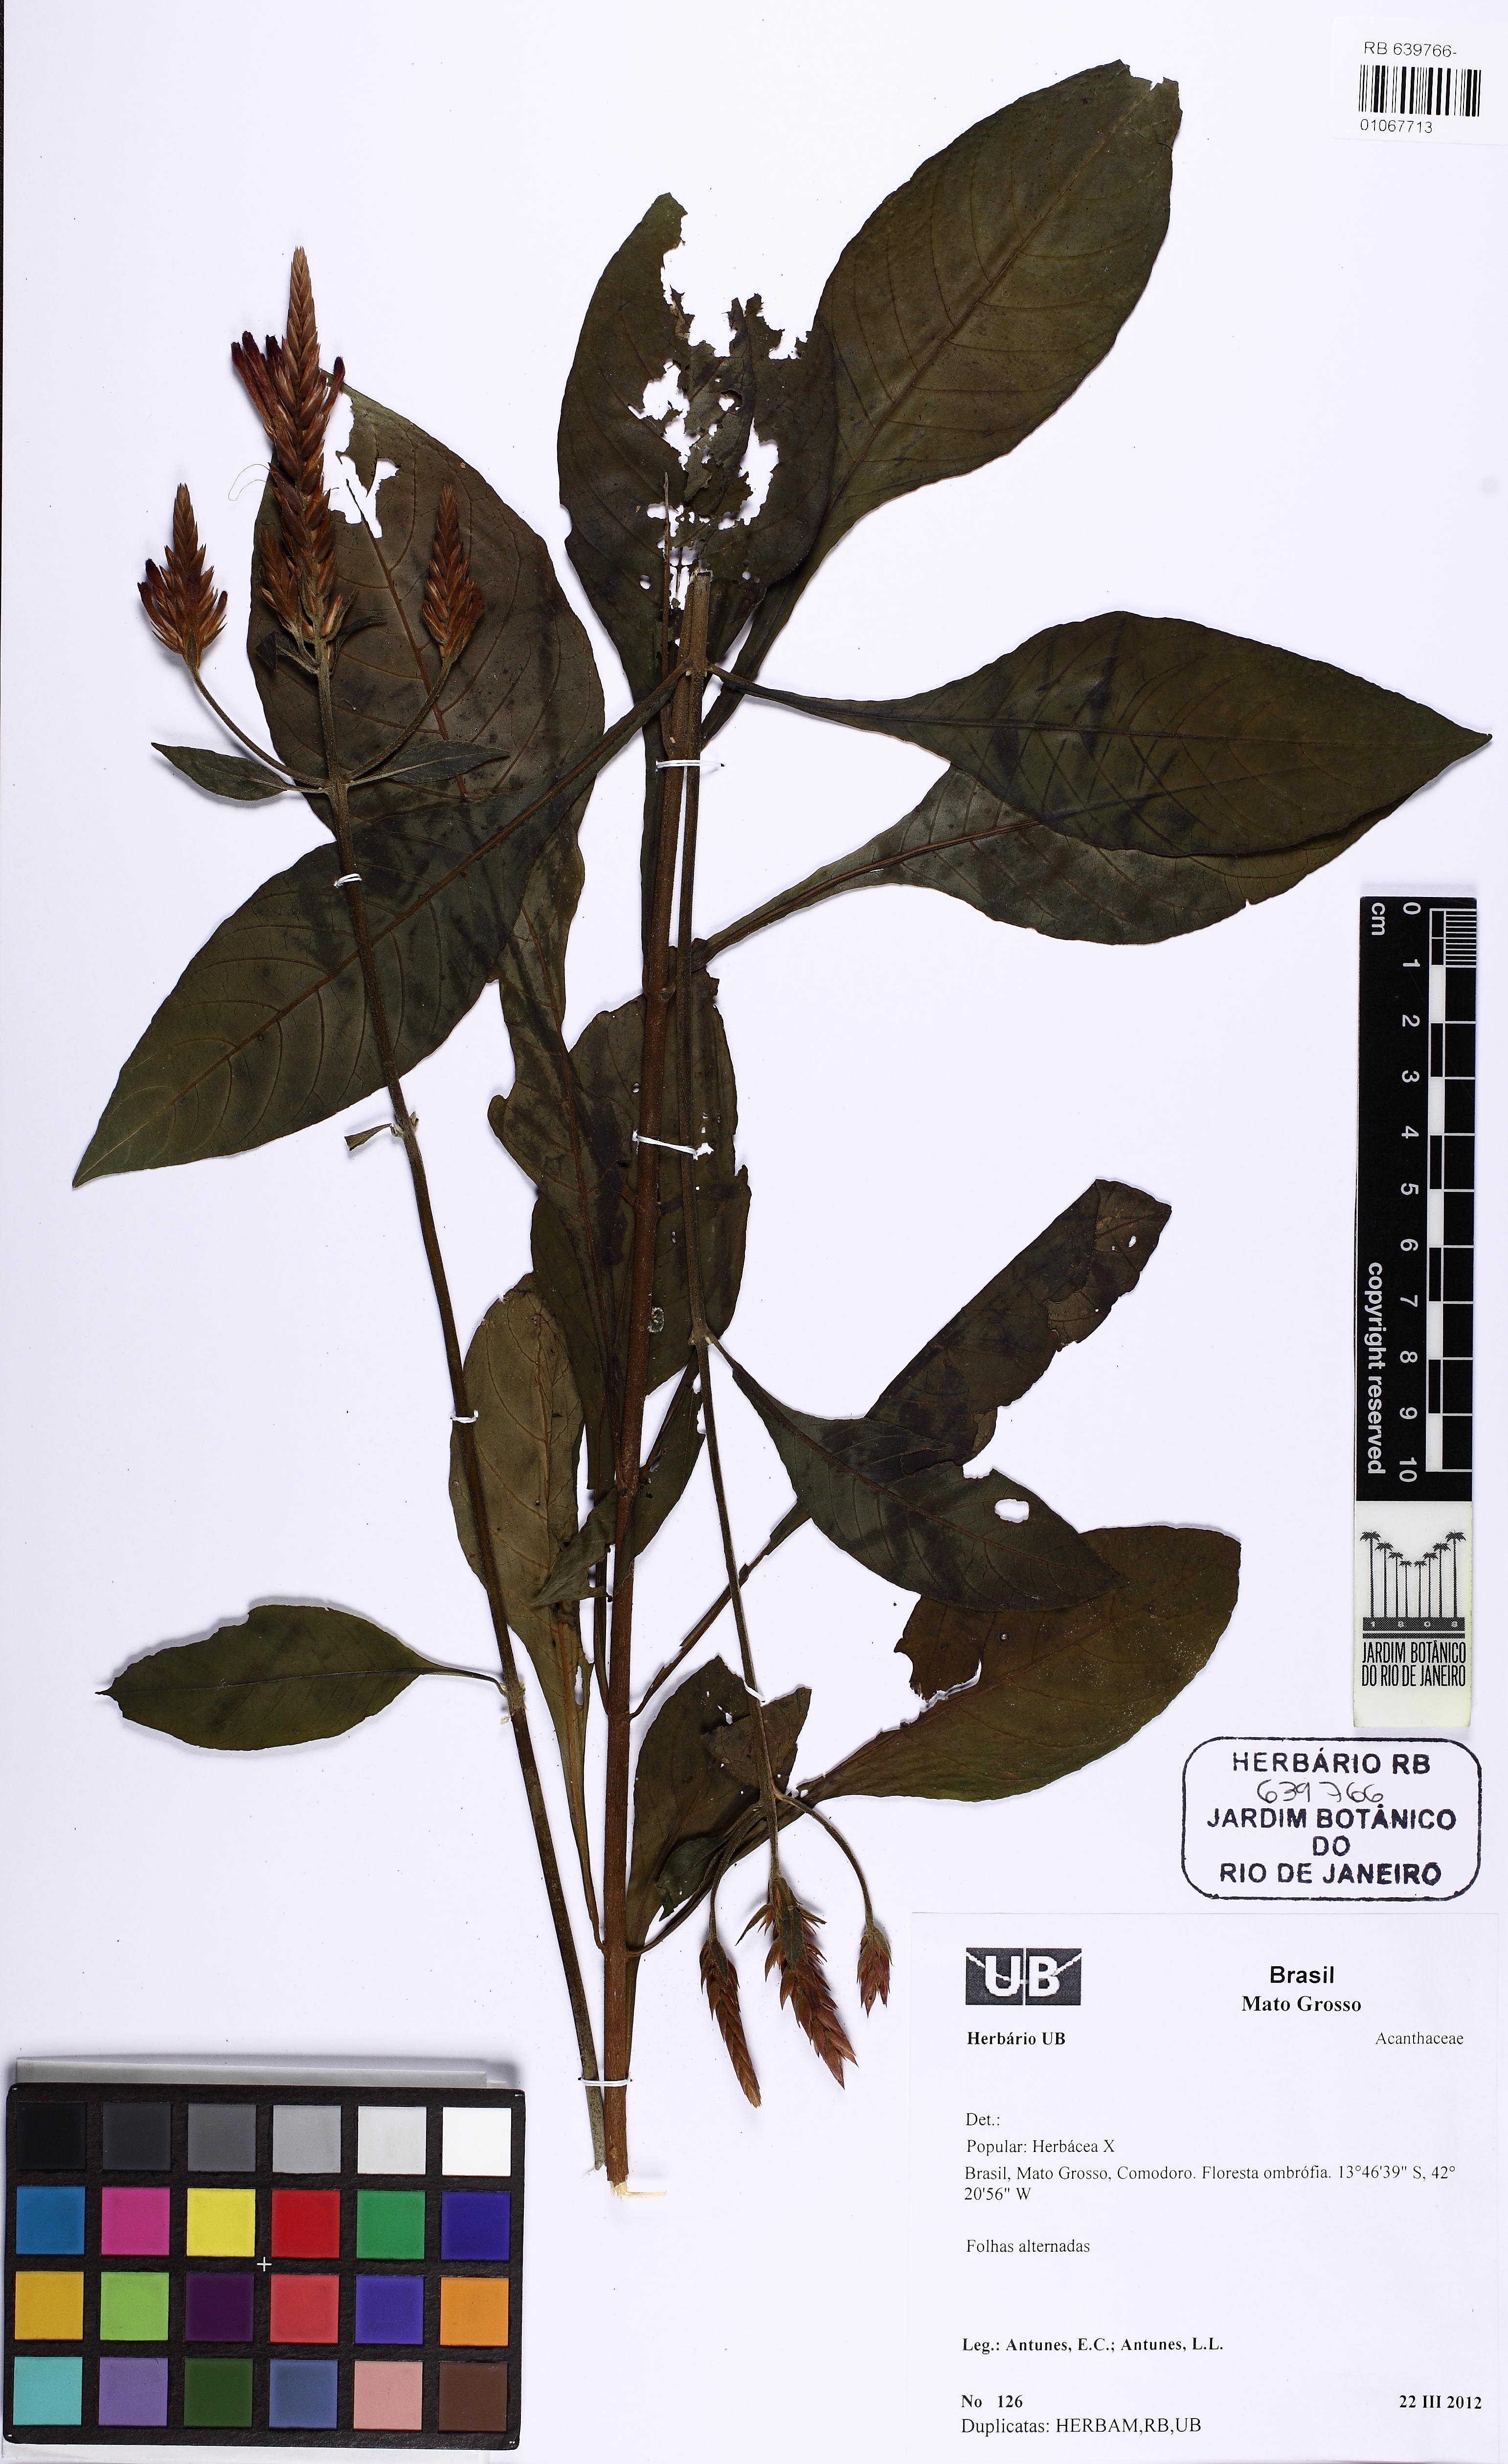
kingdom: Plantae
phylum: Tracheophyta
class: Magnoliopsida
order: Lamiales
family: Acanthaceae
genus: Aphelandra
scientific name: Aphelandra longiflora
